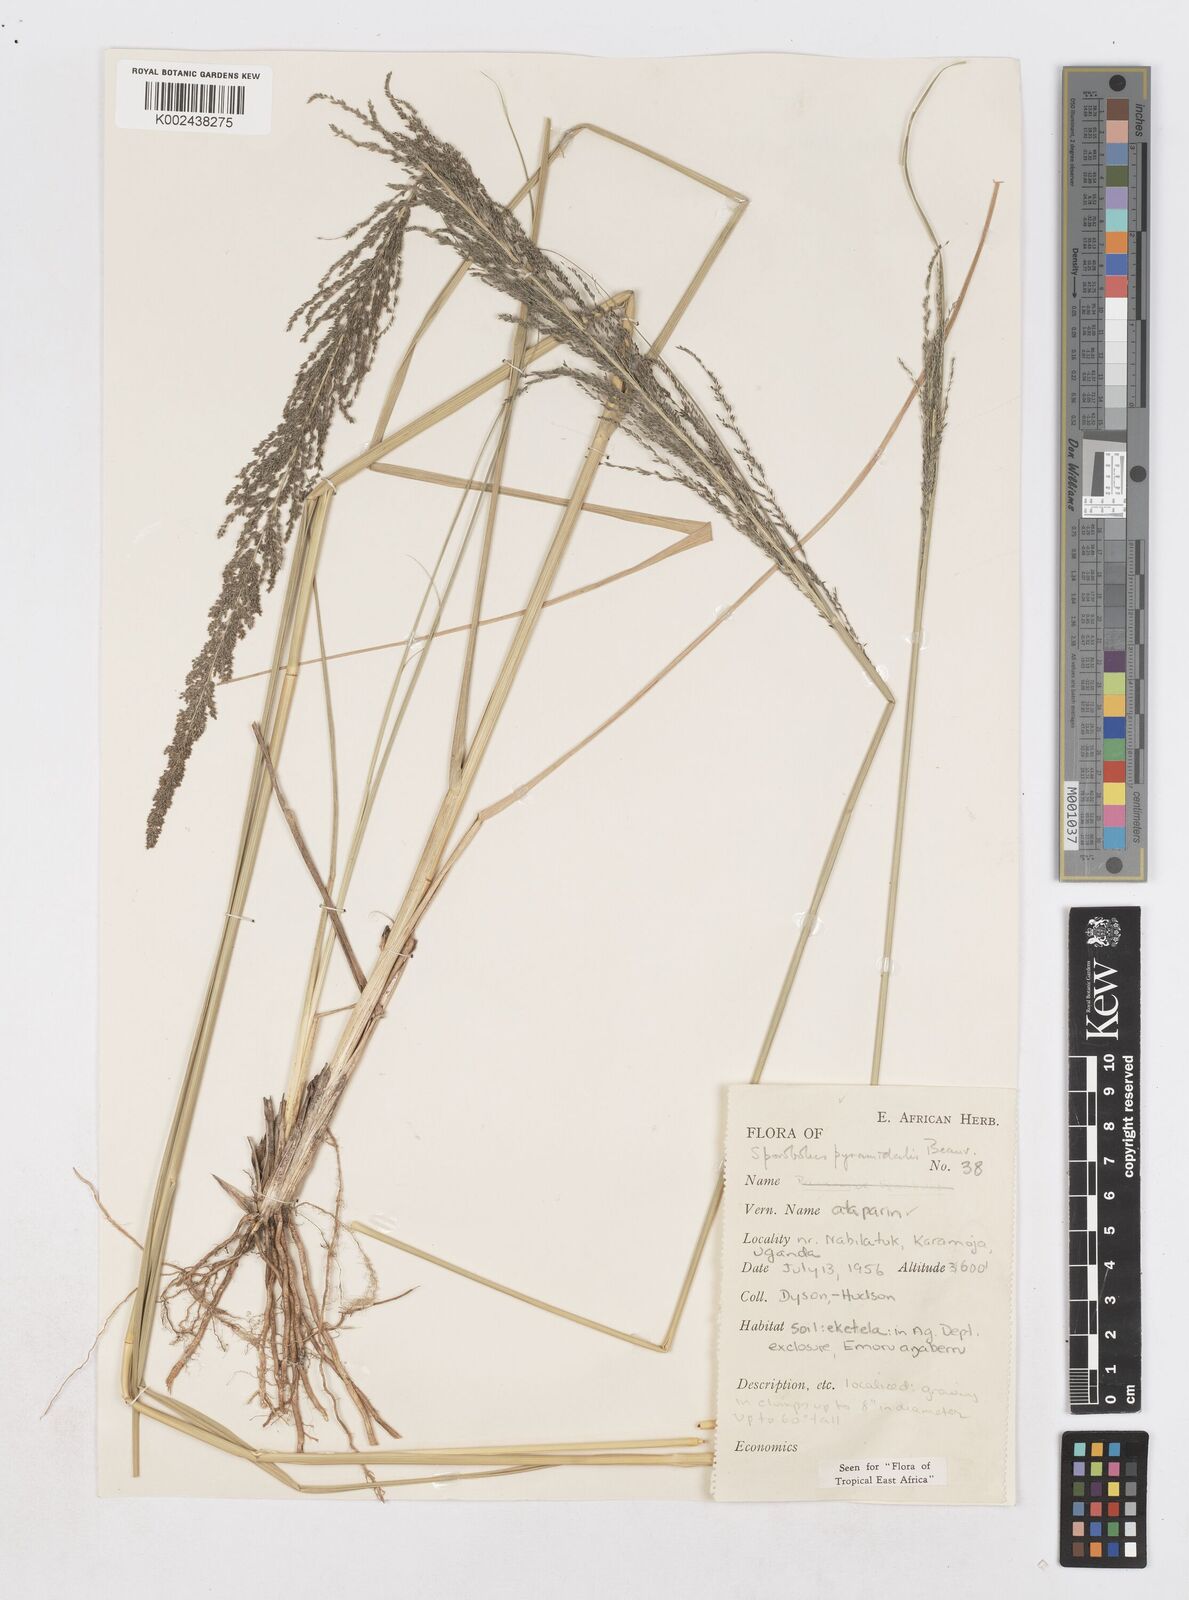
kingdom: Plantae
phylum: Tracheophyta
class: Liliopsida
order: Poales
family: Poaceae
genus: Sporobolus
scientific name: Sporobolus pyramidalis
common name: West indian dropseed
